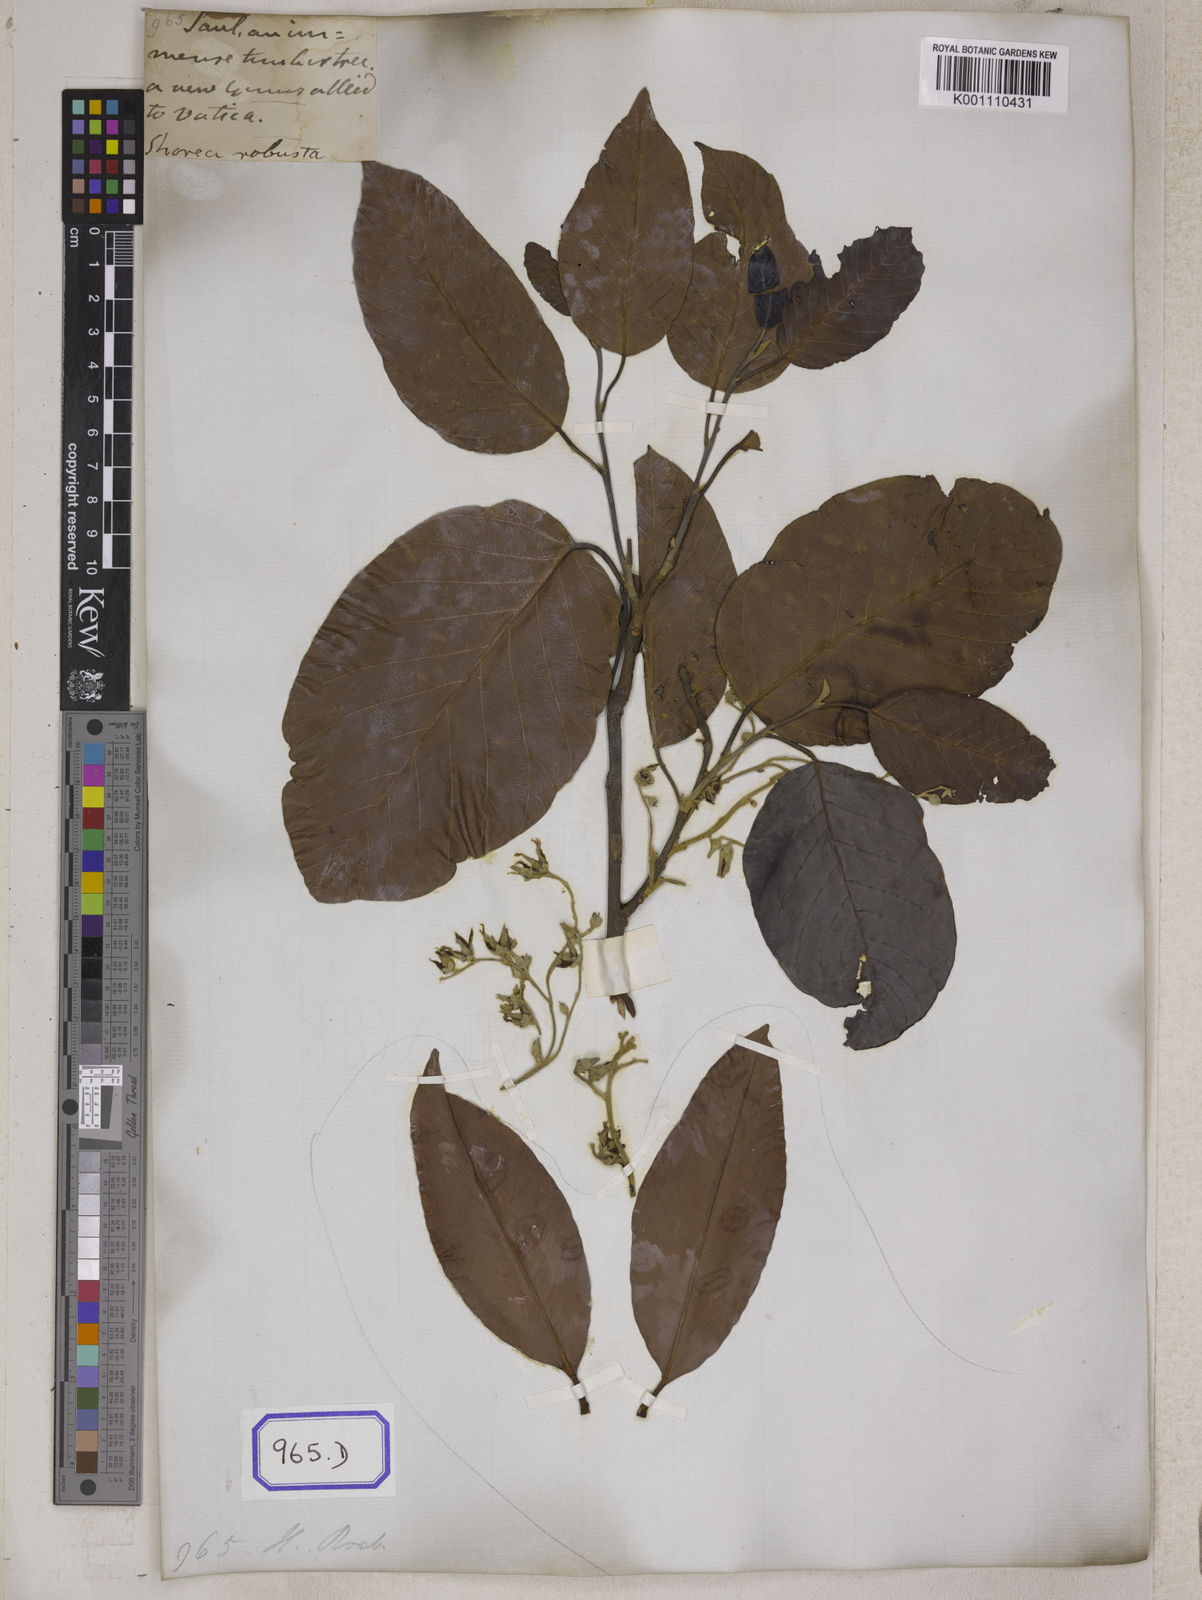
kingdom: Plantae
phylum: Tracheophyta
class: Magnoliopsida
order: Malvales
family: Dipterocarpaceae
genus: Shorea
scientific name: Shorea
